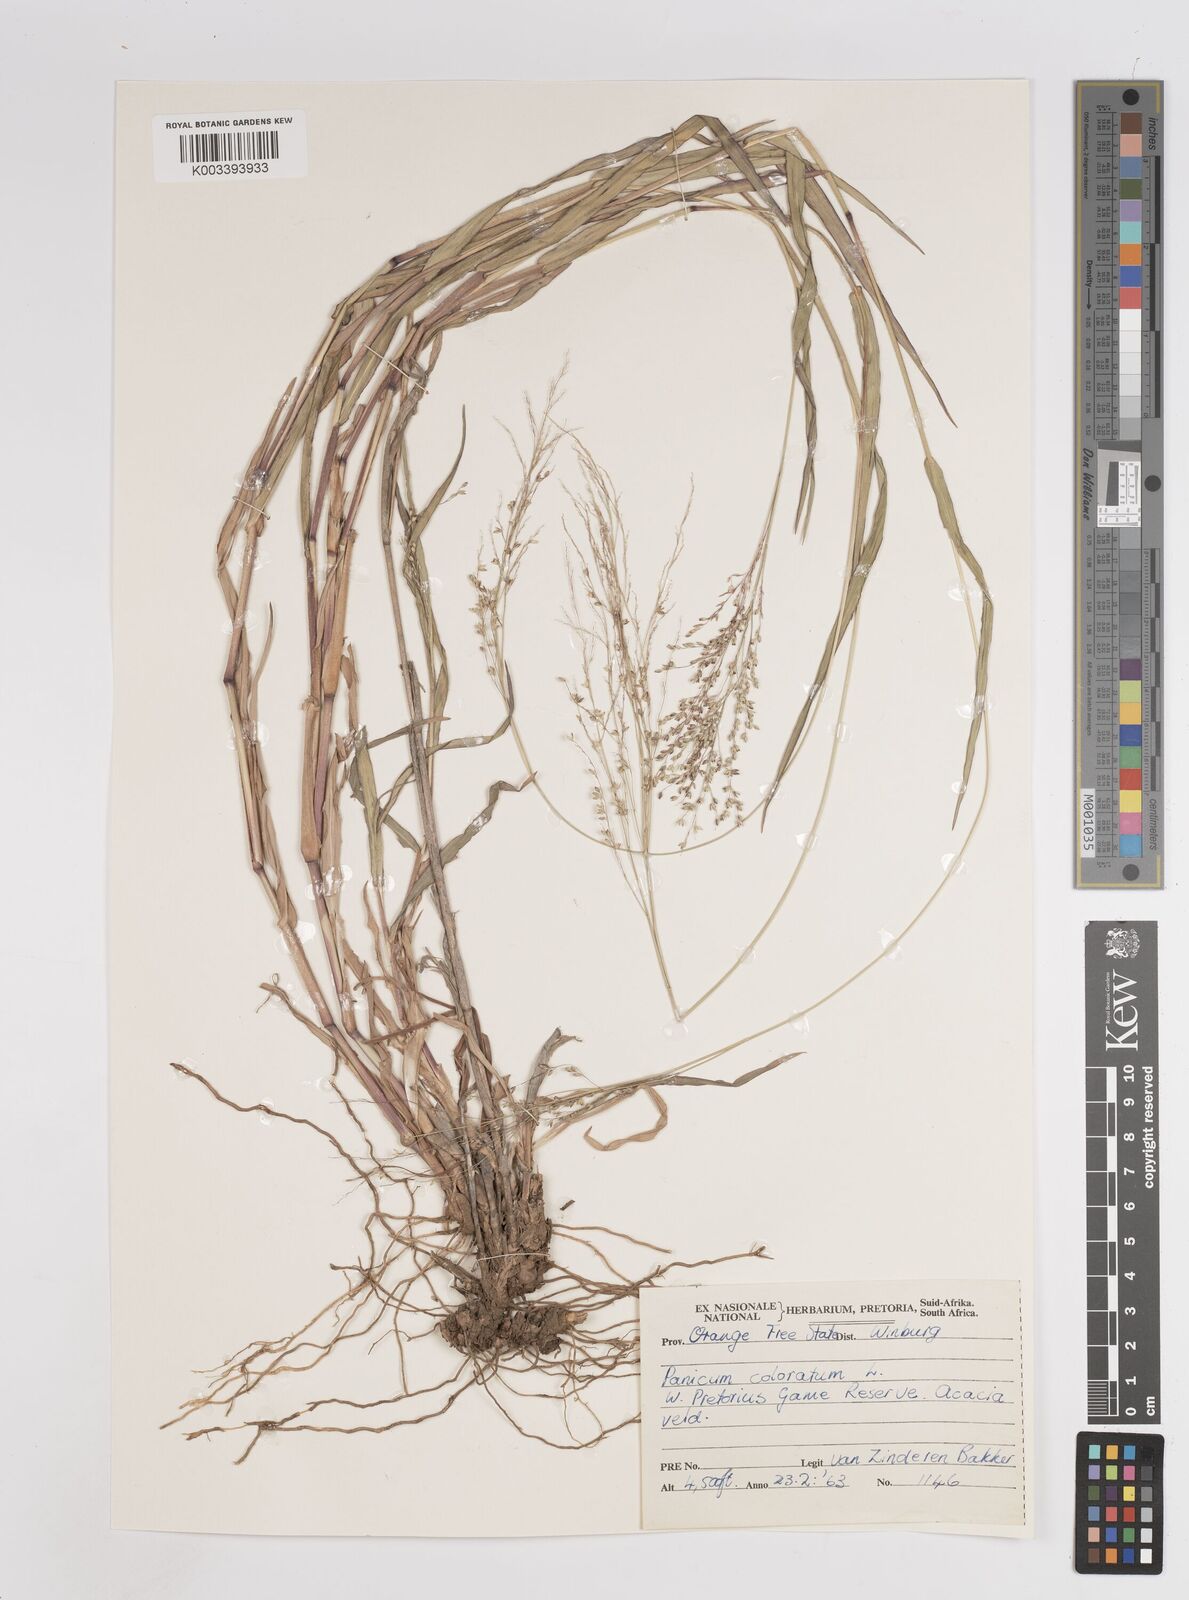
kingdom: Plantae
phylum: Tracheophyta
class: Liliopsida
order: Poales
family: Poaceae
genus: Panicum
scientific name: Panicum coloratum
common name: Kleingrass
